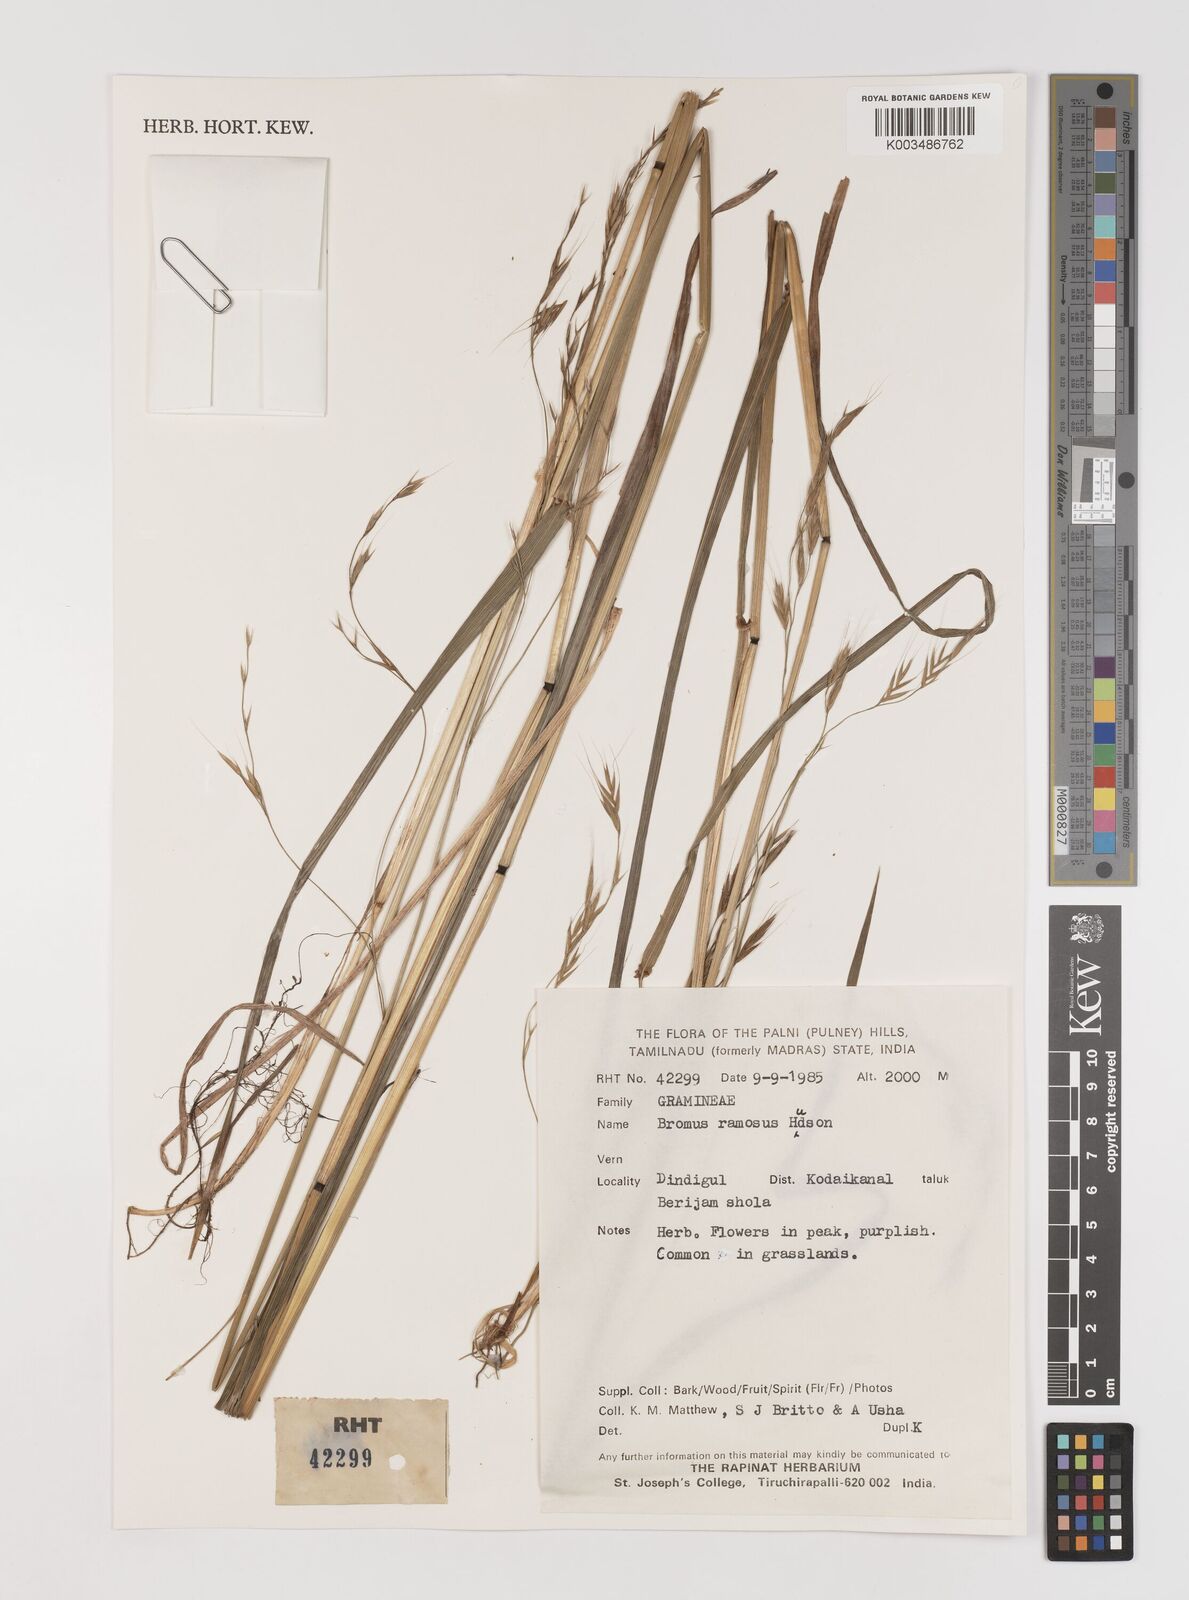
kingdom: Plantae
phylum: Tracheophyta
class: Liliopsida
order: Poales
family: Poaceae
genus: Brachypodium
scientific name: Brachypodium retusum
